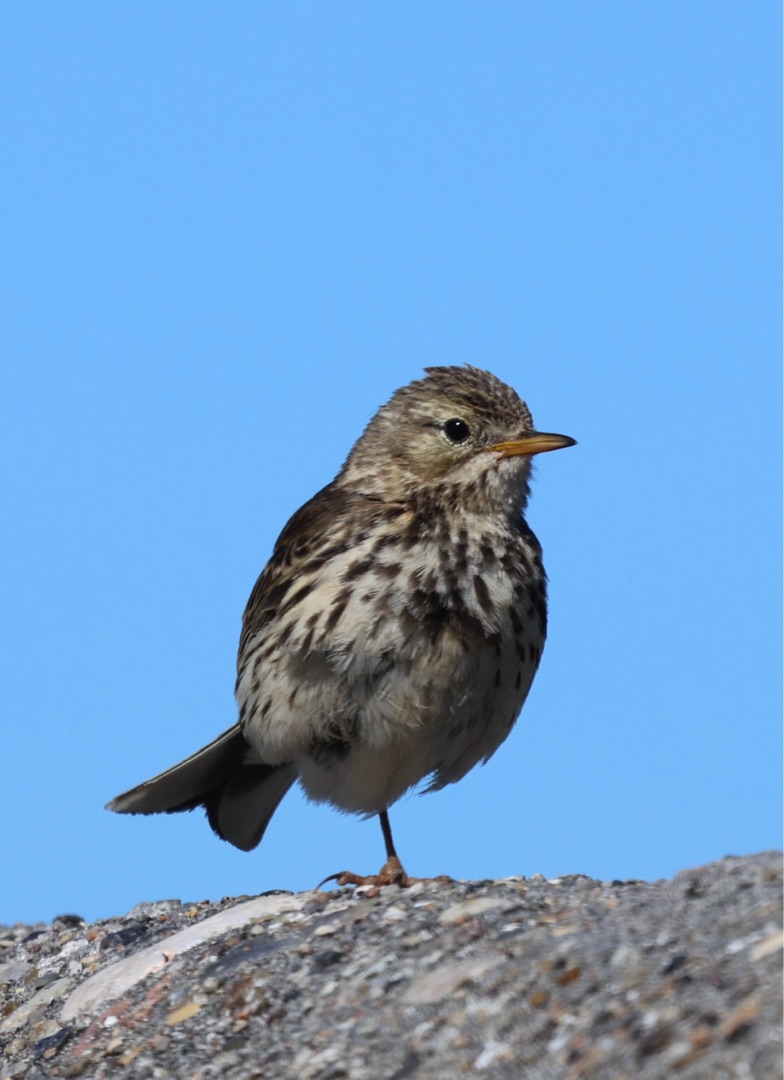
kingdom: Animalia
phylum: Chordata
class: Aves
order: Passeriformes
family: Motacillidae
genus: Anthus
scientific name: Anthus pratensis
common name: Engpiber
